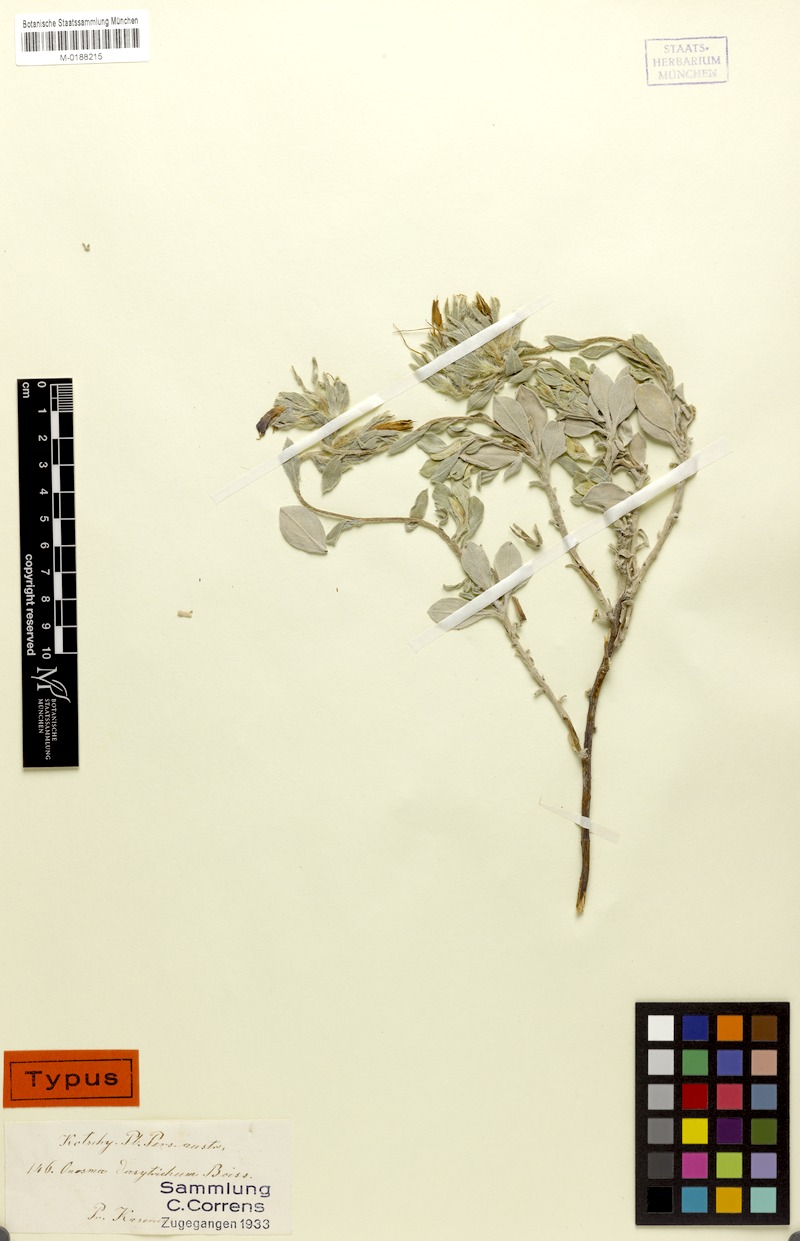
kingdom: Plantae
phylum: Tracheophyta
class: Magnoliopsida
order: Boraginales
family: Boraginaceae
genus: Onosma
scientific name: Onosma dasytricha
